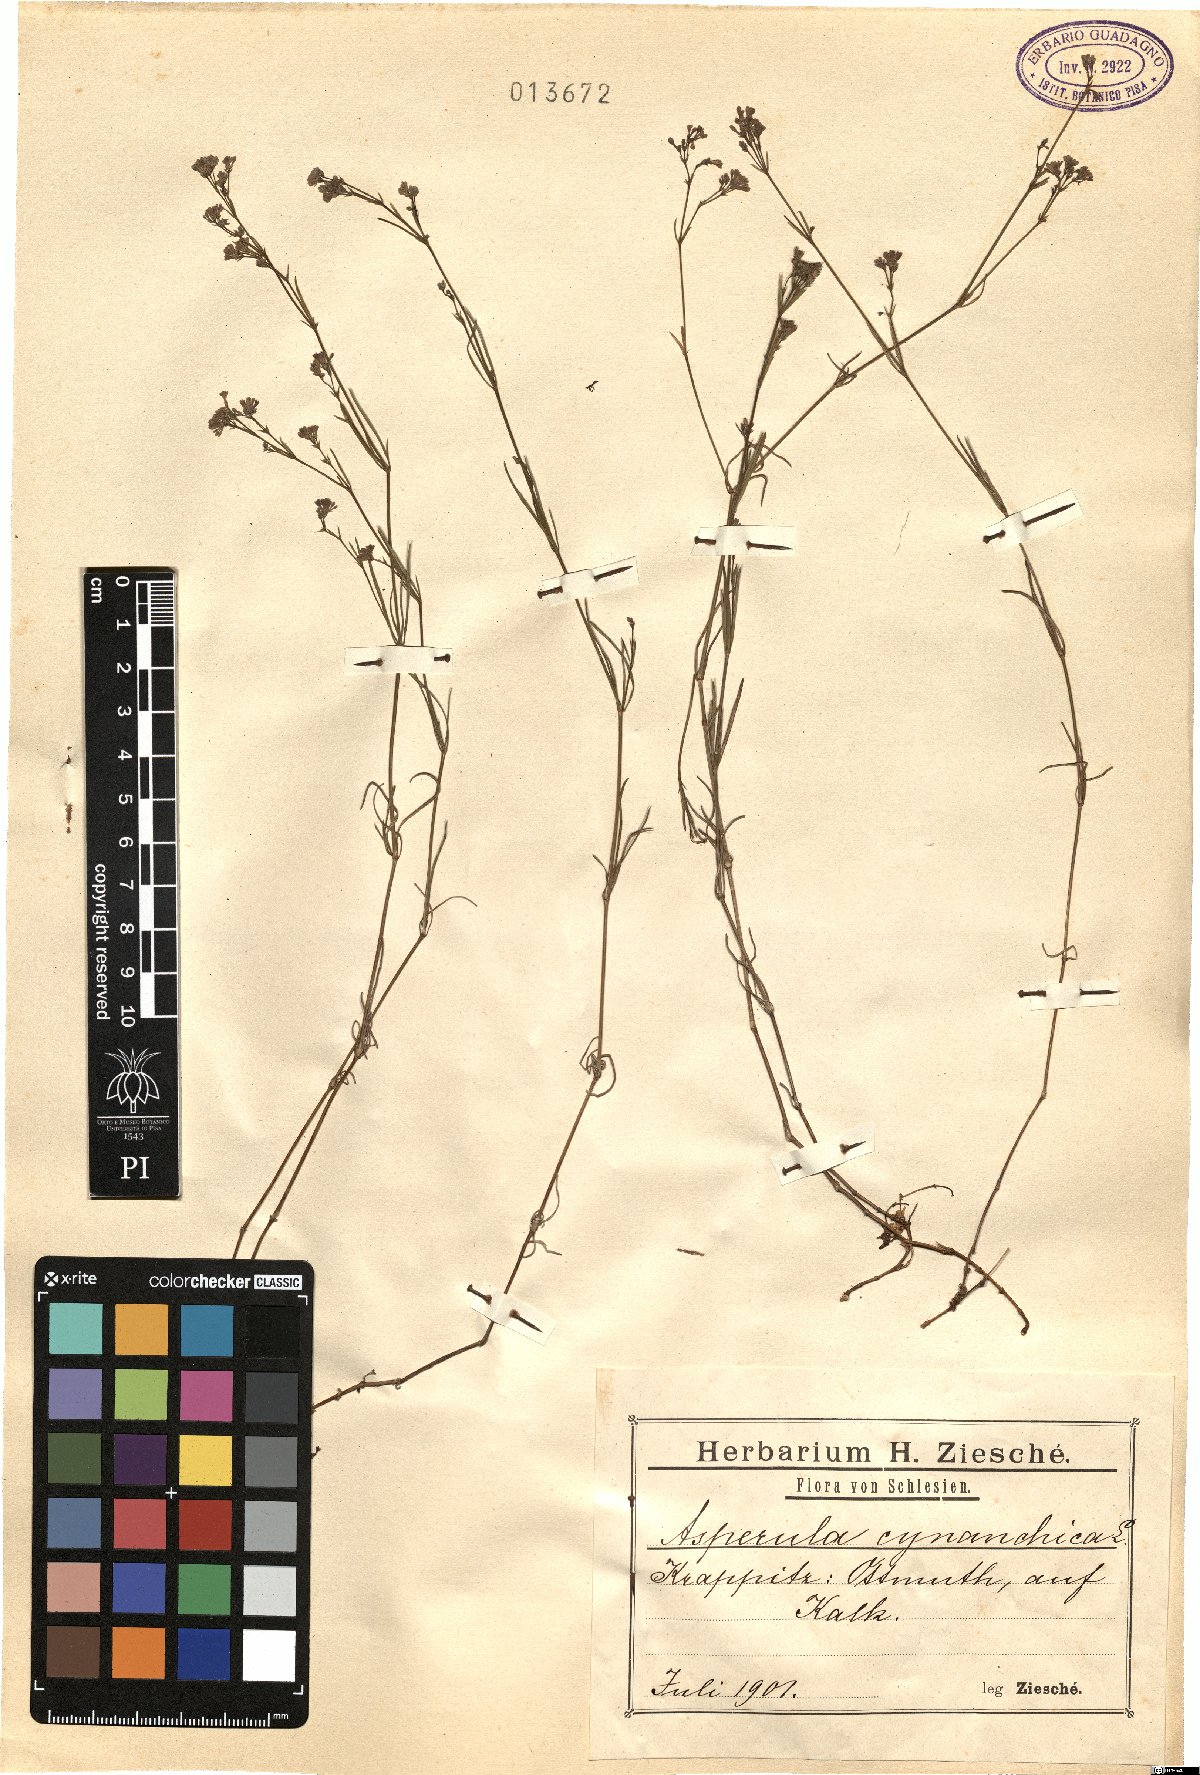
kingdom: Plantae
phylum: Tracheophyta
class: Magnoliopsida
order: Gentianales
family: Rubiaceae
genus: Cynanchica
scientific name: Cynanchica pyrenaica
